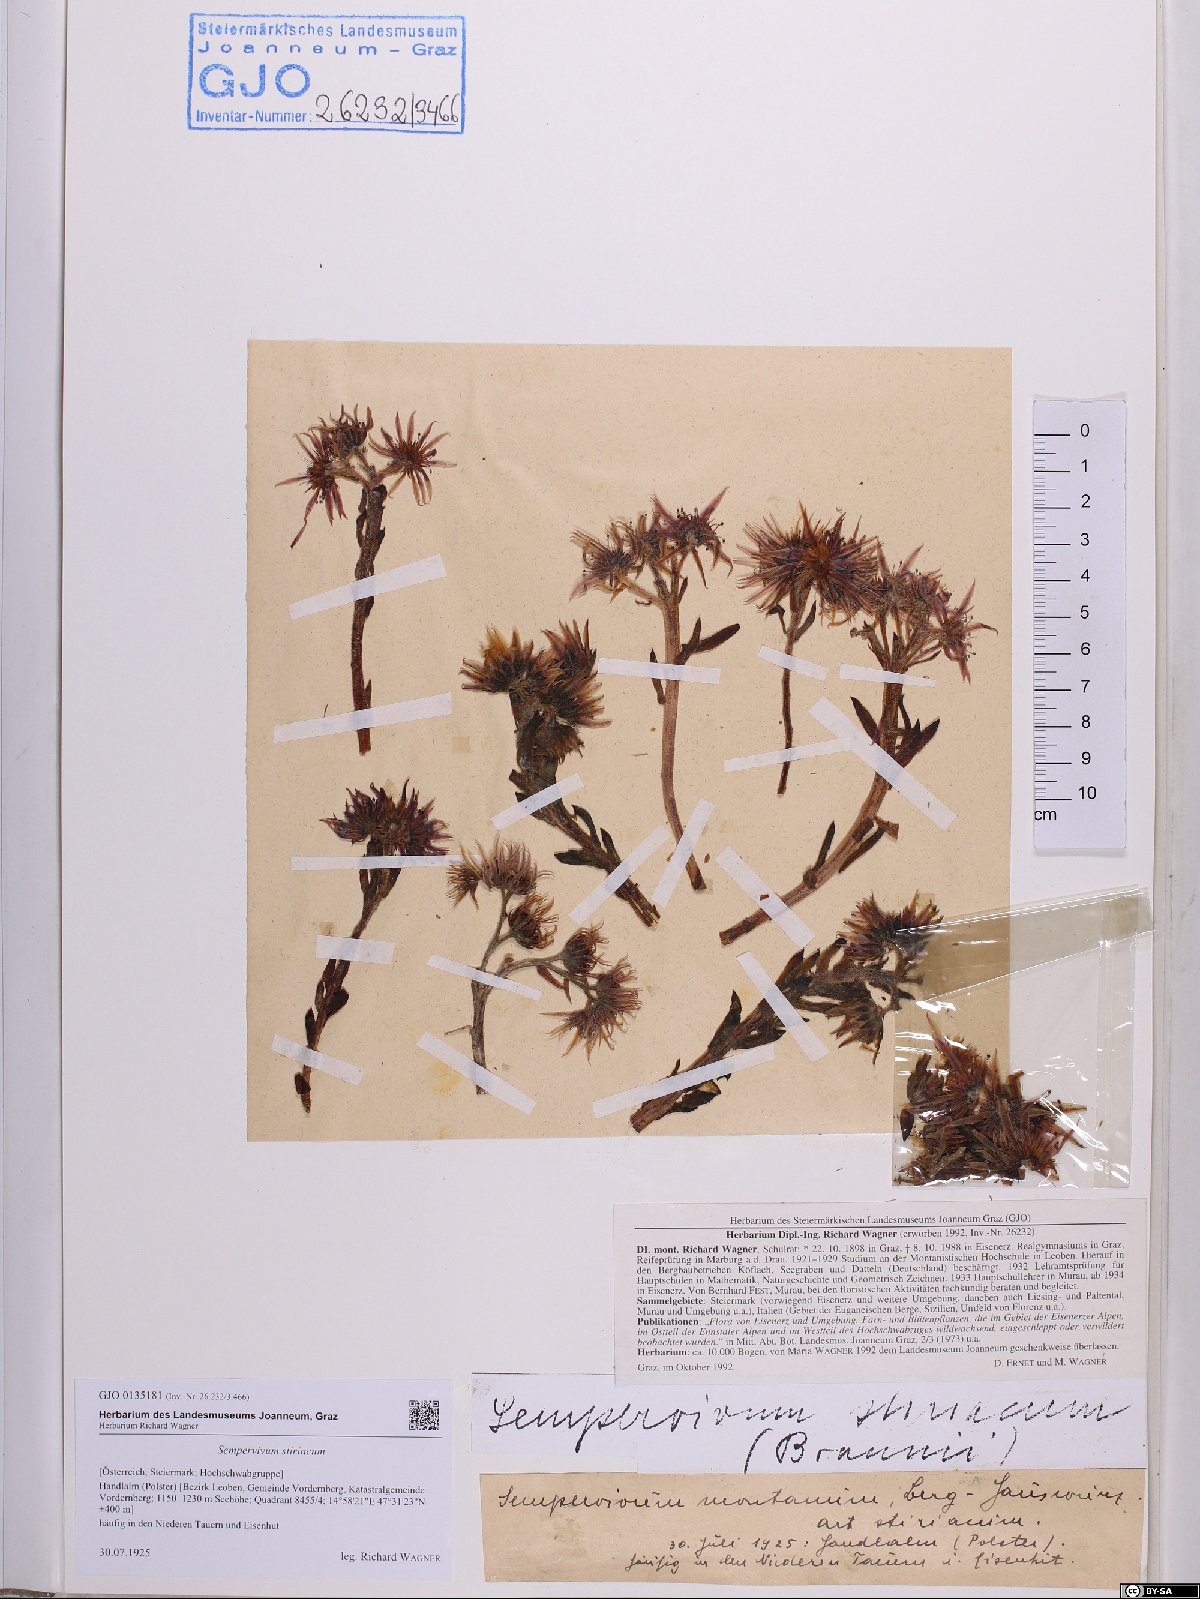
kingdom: Plantae
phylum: Tracheophyta
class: Magnoliopsida
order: Saxifragales
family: Crassulaceae
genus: Sempervivum
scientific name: Sempervivum montanum
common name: Mountain house-leek
